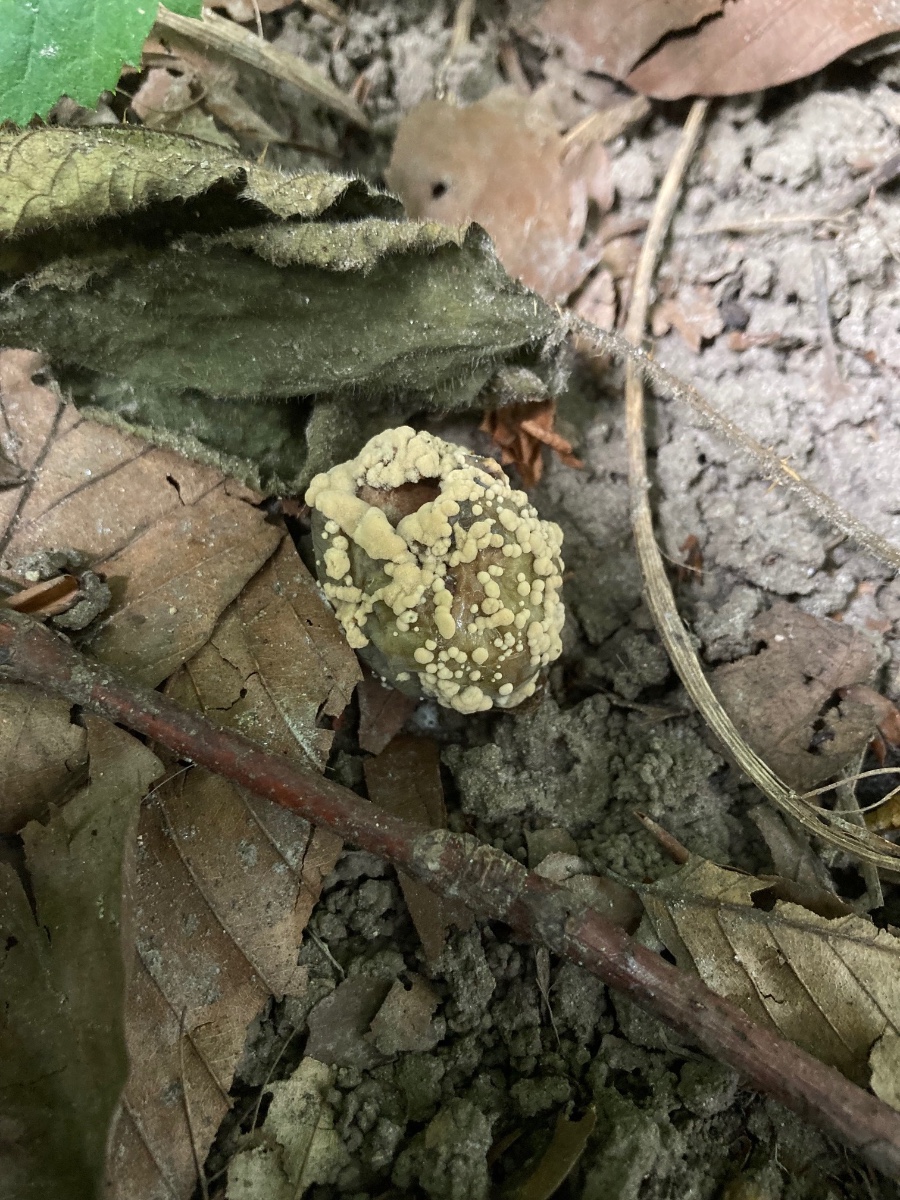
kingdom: Fungi
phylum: Ascomycota
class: Leotiomycetes
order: Helotiales
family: Sclerotiniaceae
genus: Monilinia
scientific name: Monilinia fructigena
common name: æble-knoldskive
